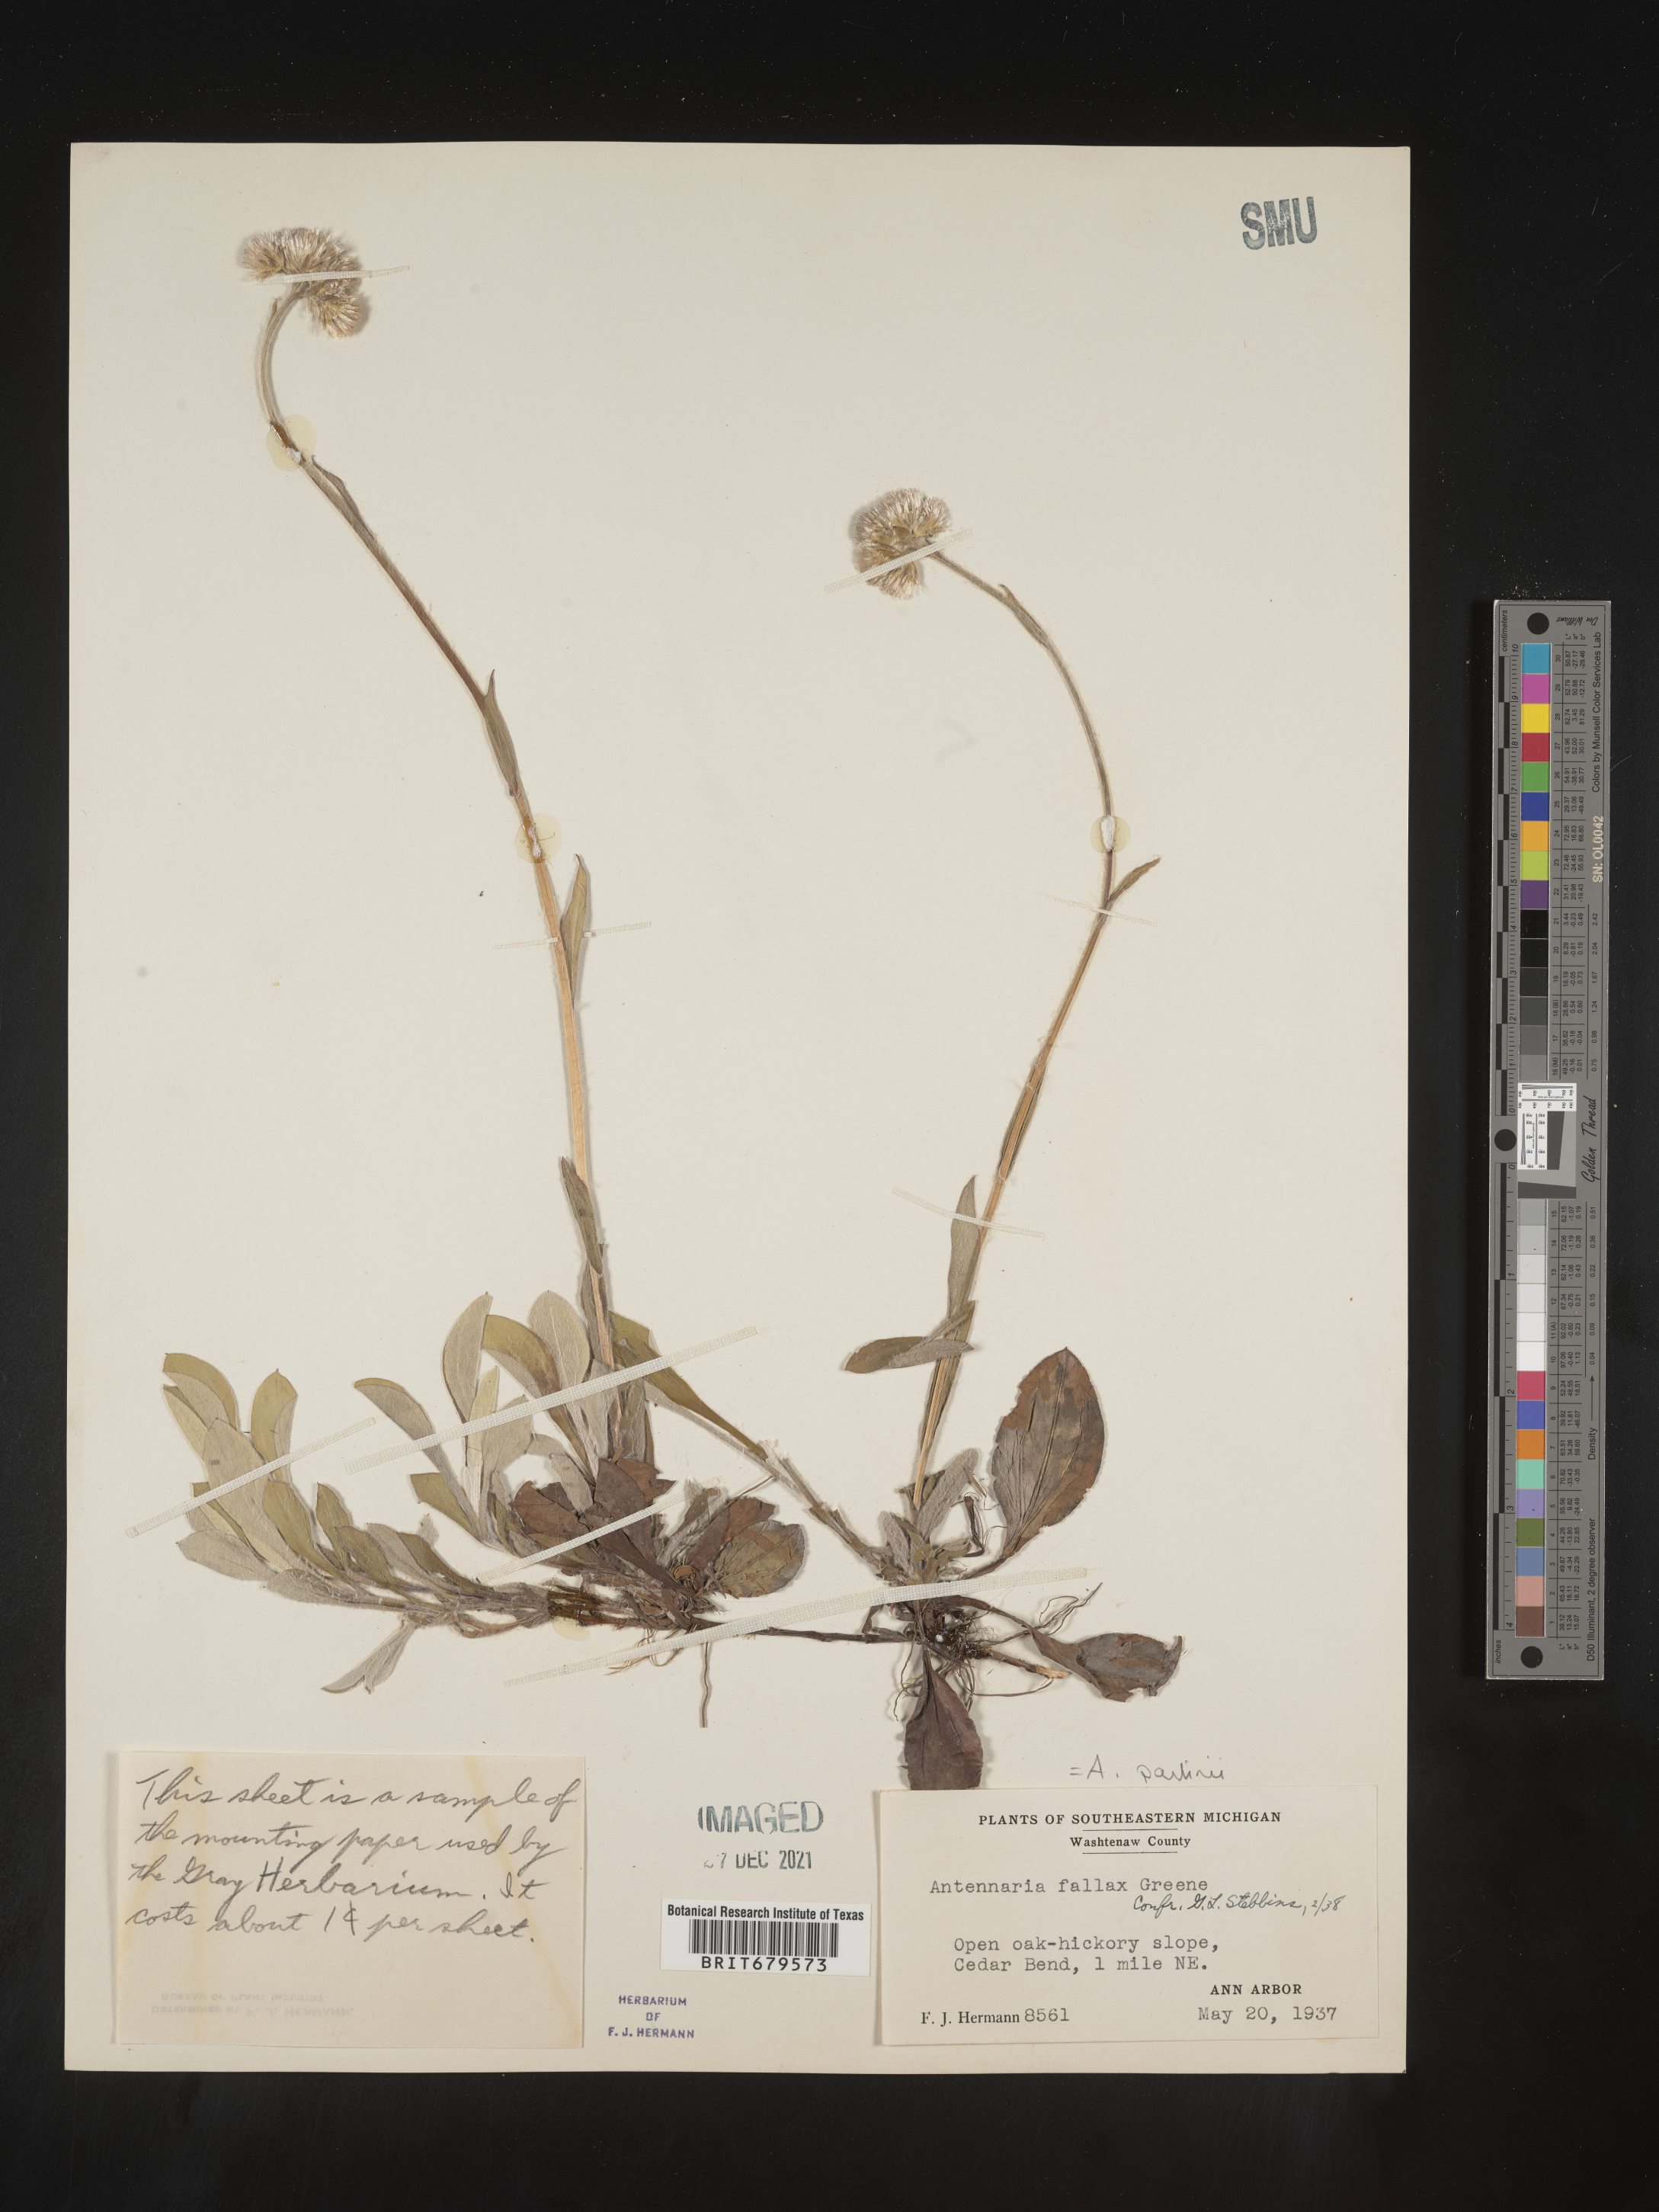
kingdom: Plantae
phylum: Tracheophyta
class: Magnoliopsida
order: Asterales
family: Asteraceae
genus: Antennaria
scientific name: Antennaria parlinii
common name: Parlin's pussytoes
